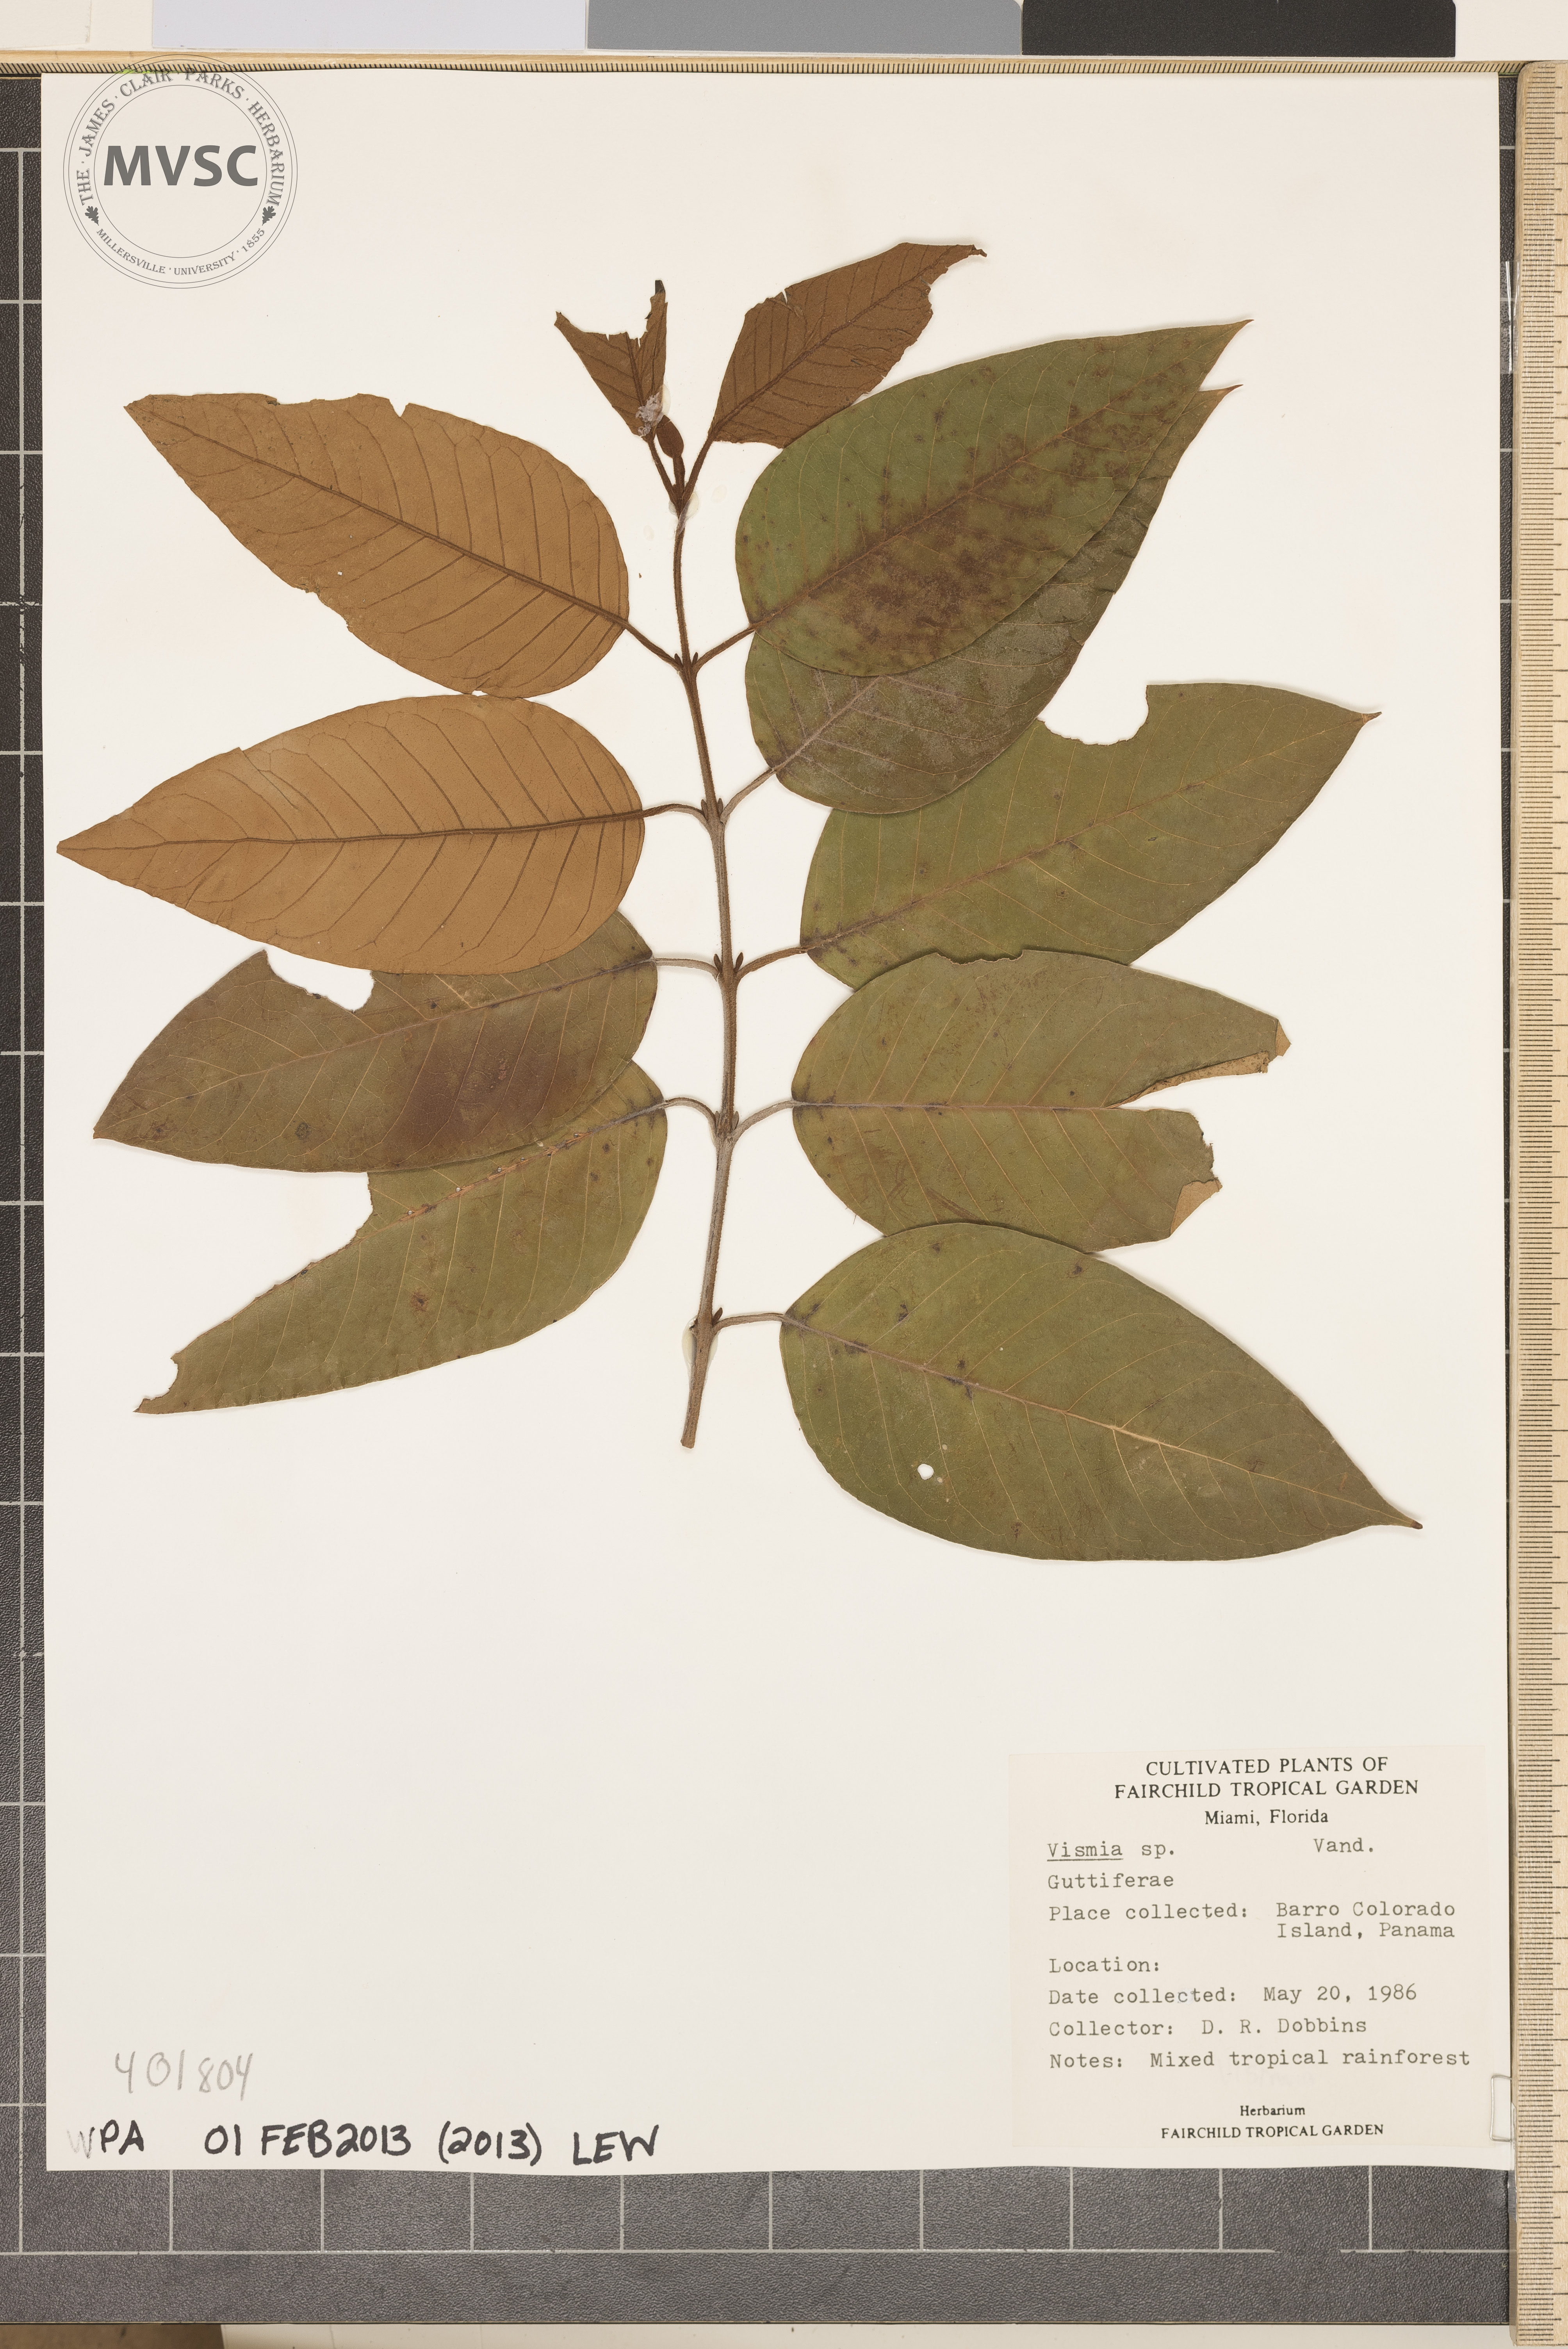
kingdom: Plantae
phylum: Tracheophyta
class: Magnoliopsida
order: Malpighiales
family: Hypericaceae
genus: Vismia
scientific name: Vismia
